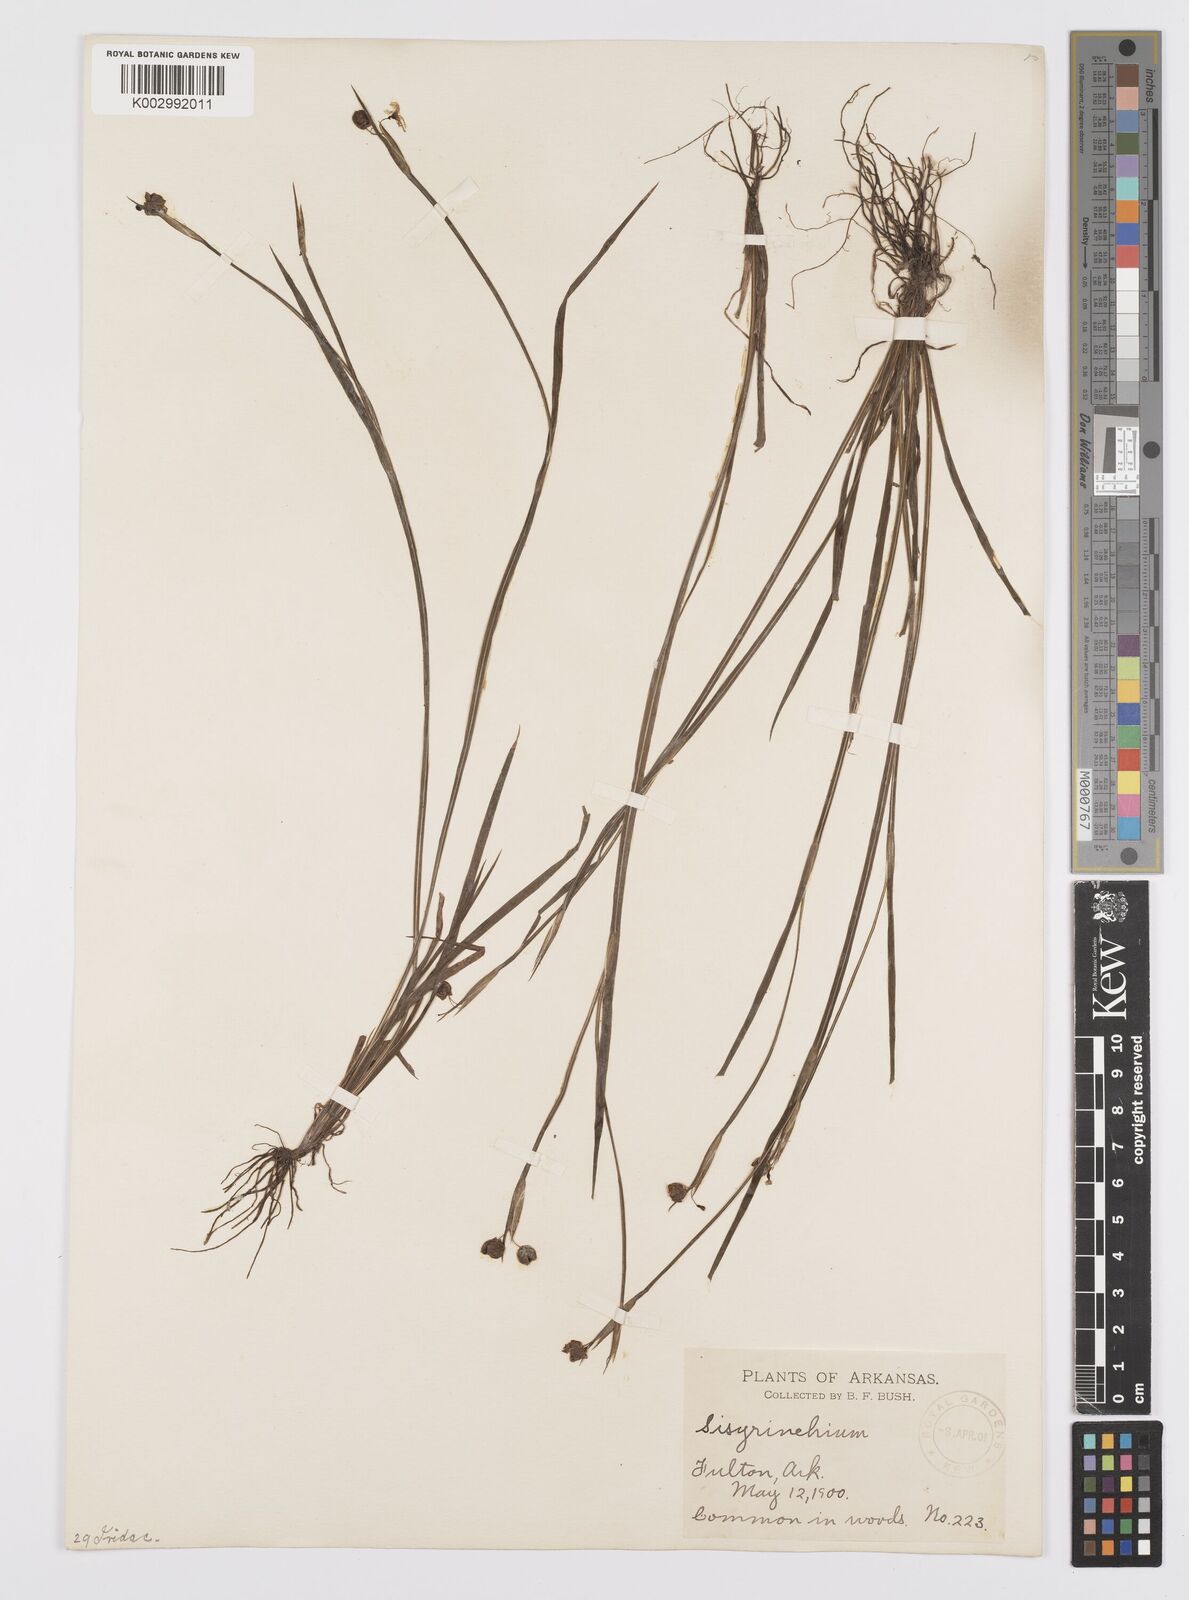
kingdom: Plantae
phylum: Tracheophyta
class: Liliopsida
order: Asparagales
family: Iridaceae
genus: Sisyrinchium
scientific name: Sisyrinchium
